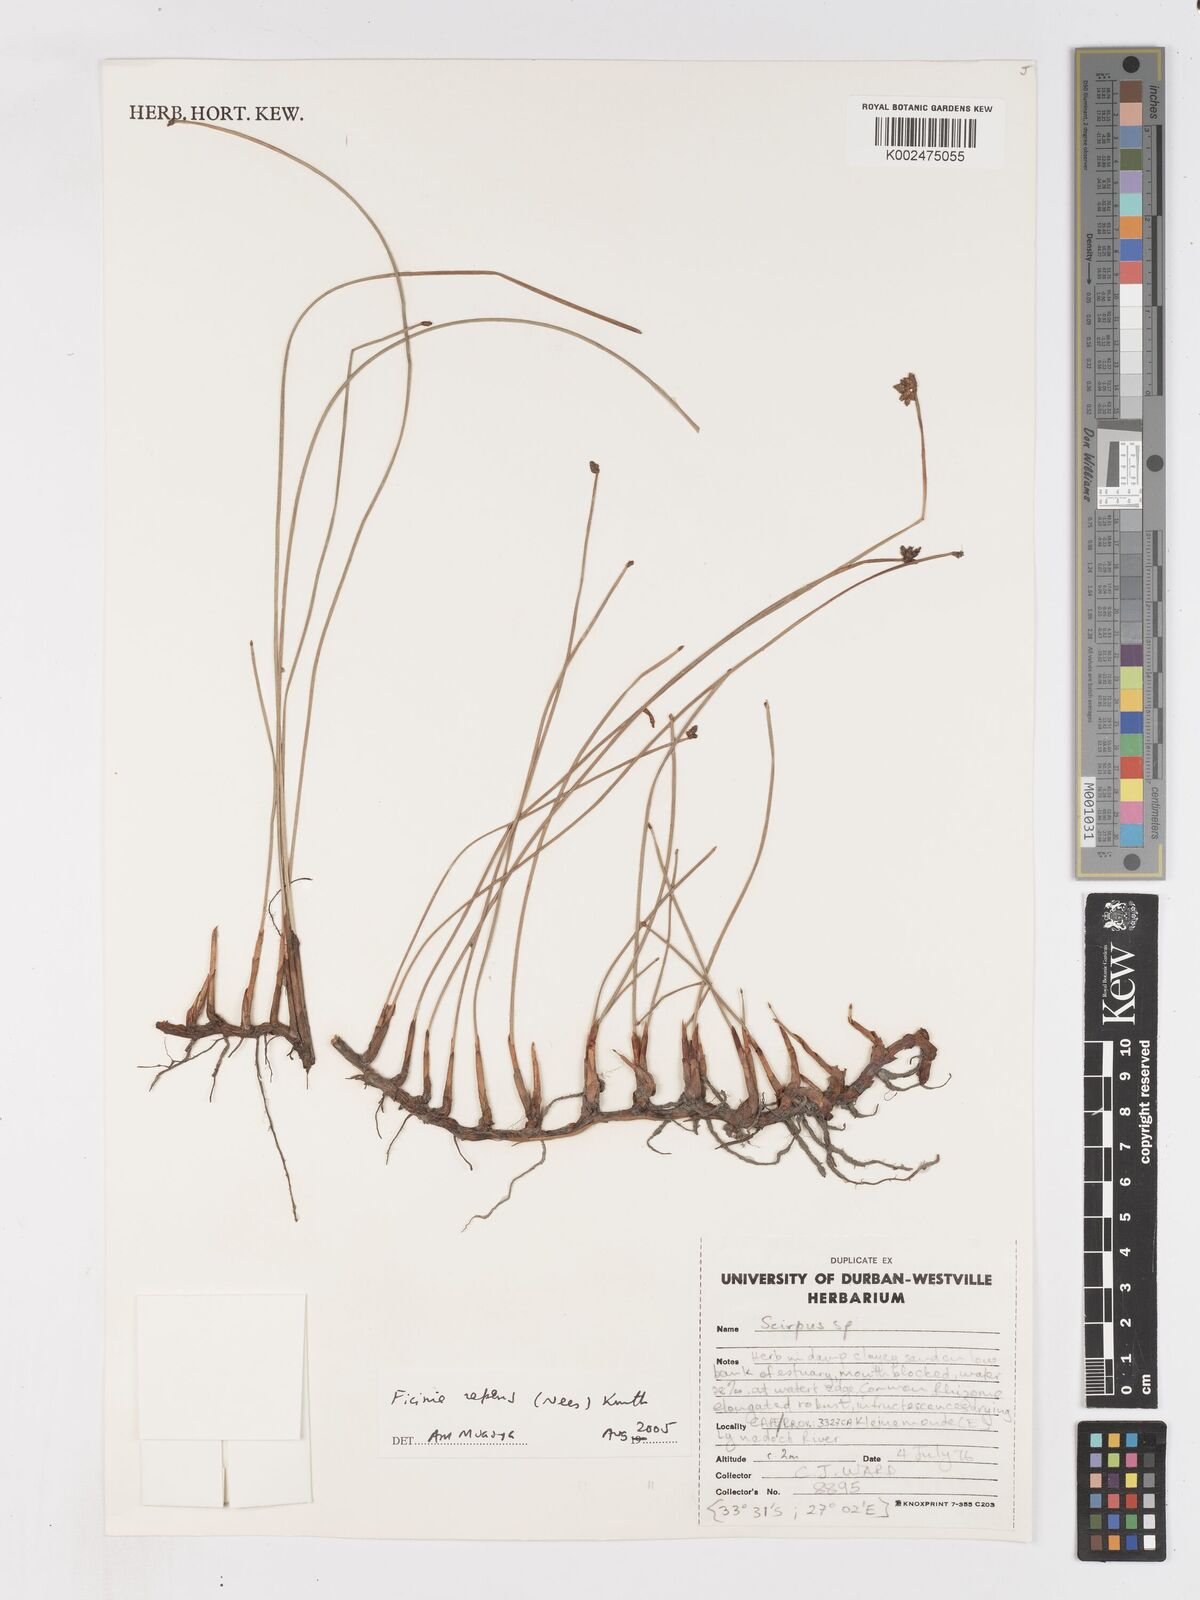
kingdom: Plantae
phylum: Tracheophyta
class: Liliopsida
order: Poales
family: Cyperaceae
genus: Ficinia
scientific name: Ficinia repens
